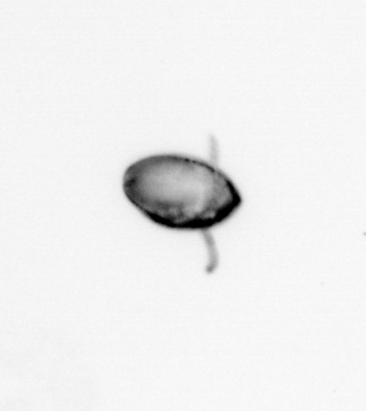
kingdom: Animalia
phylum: Arthropoda
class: Copepoda
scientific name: Copepoda
